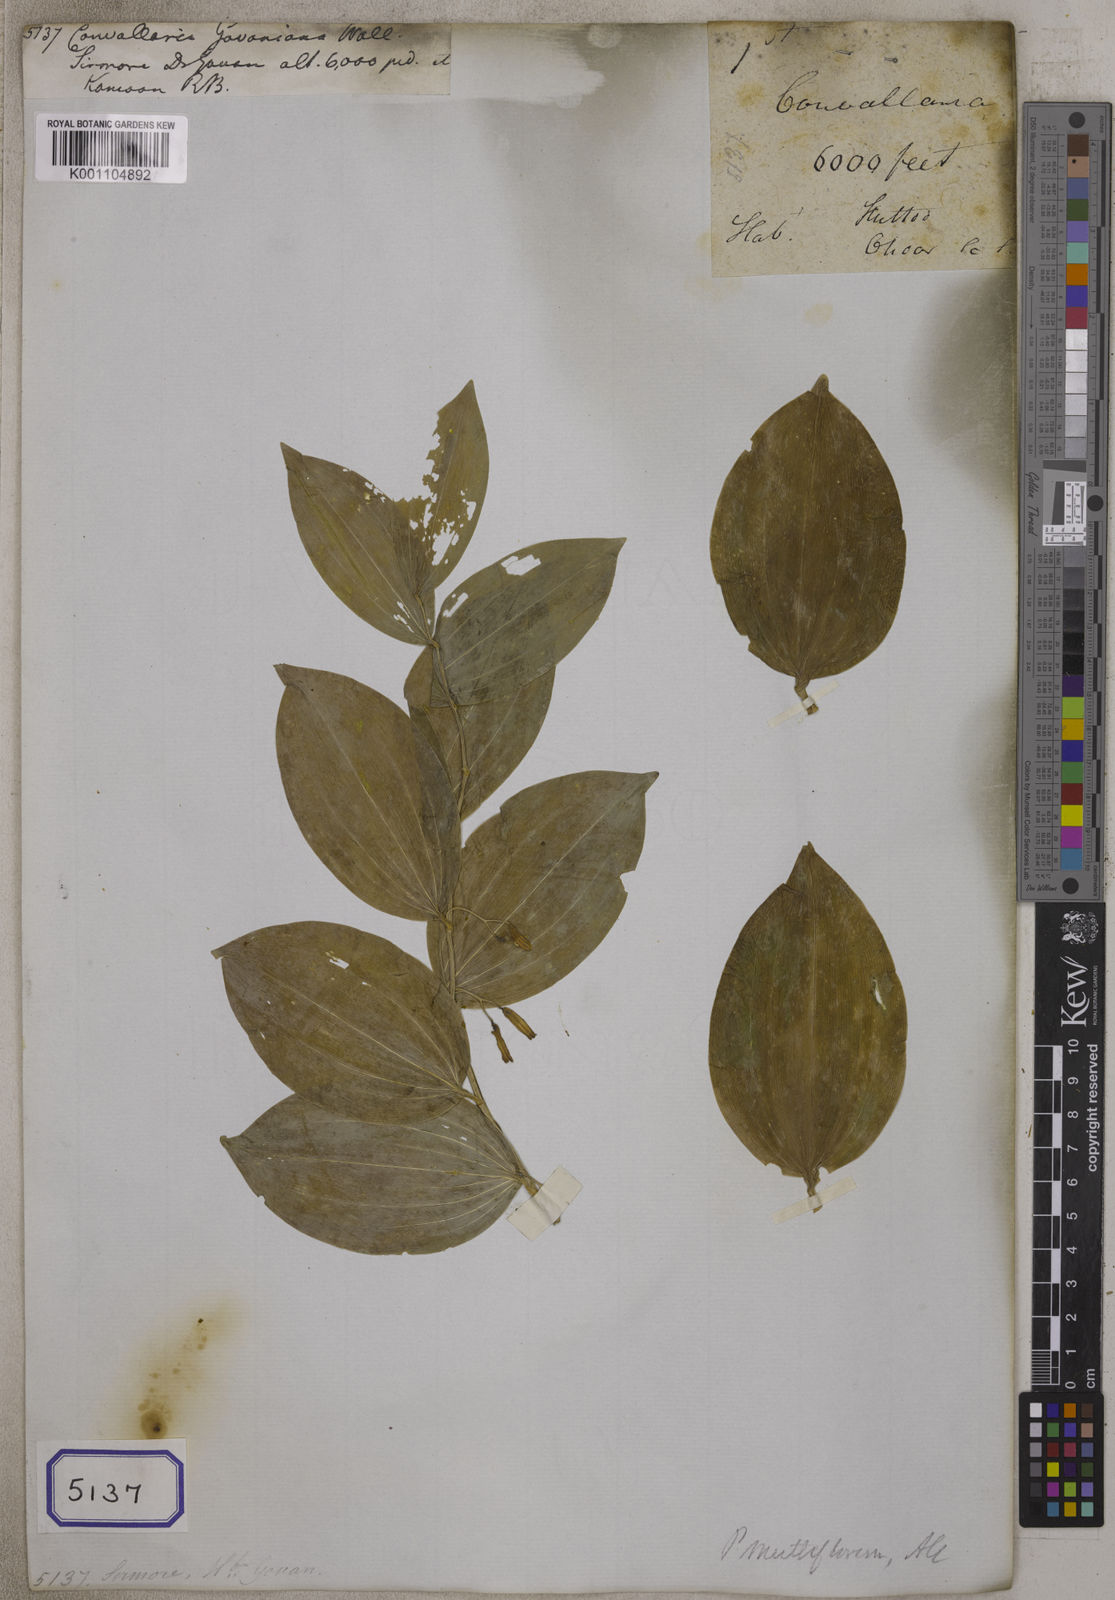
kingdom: Plantae
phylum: Tracheophyta
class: Liliopsida
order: Asparagales
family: Asparagaceae
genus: Polygonatum
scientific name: Polygonatum multiflorum
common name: Solomon's-seal
